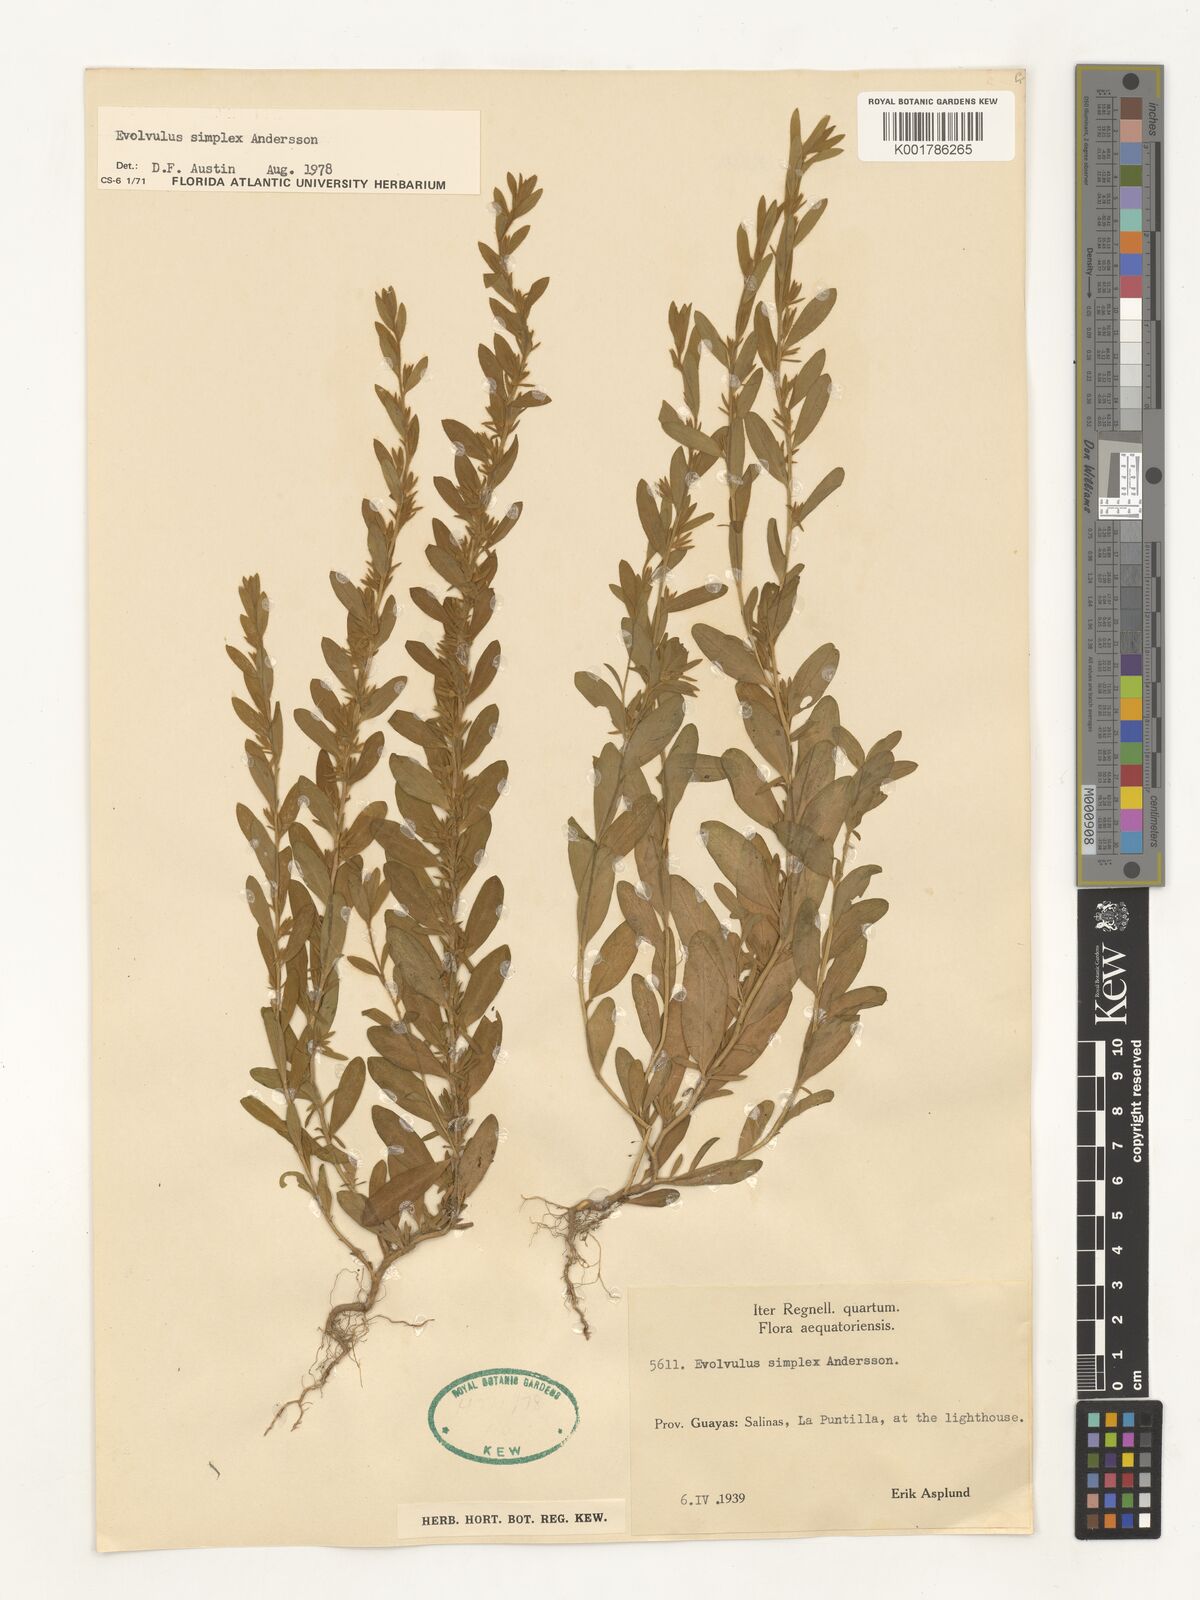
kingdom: Plantae
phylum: Tracheophyta
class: Magnoliopsida
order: Solanales
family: Convolvulaceae
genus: Evolvulus
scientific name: Evolvulus simplex
